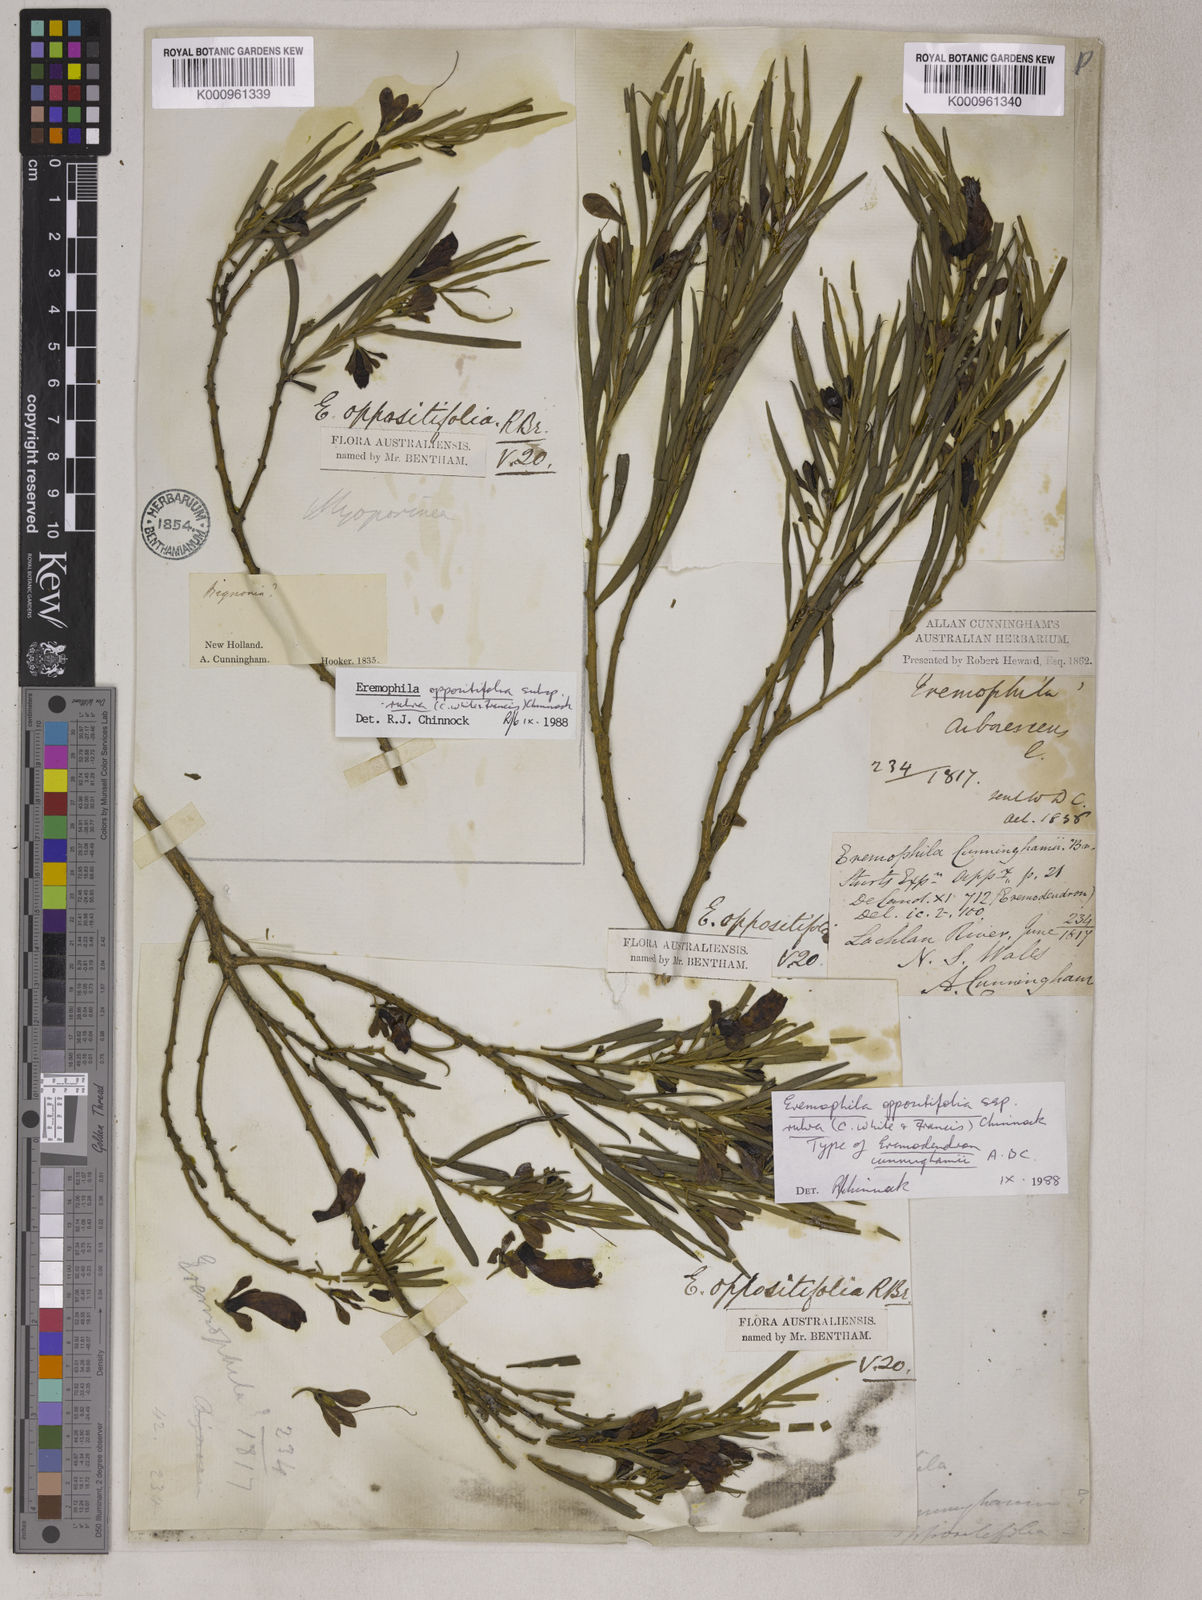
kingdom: Plantae
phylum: Tracheophyta
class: Magnoliopsida
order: Lamiales
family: Scrophulariaceae
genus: Eremophila
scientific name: Eremophila oppositifolia
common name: Mountain-sandalwood
